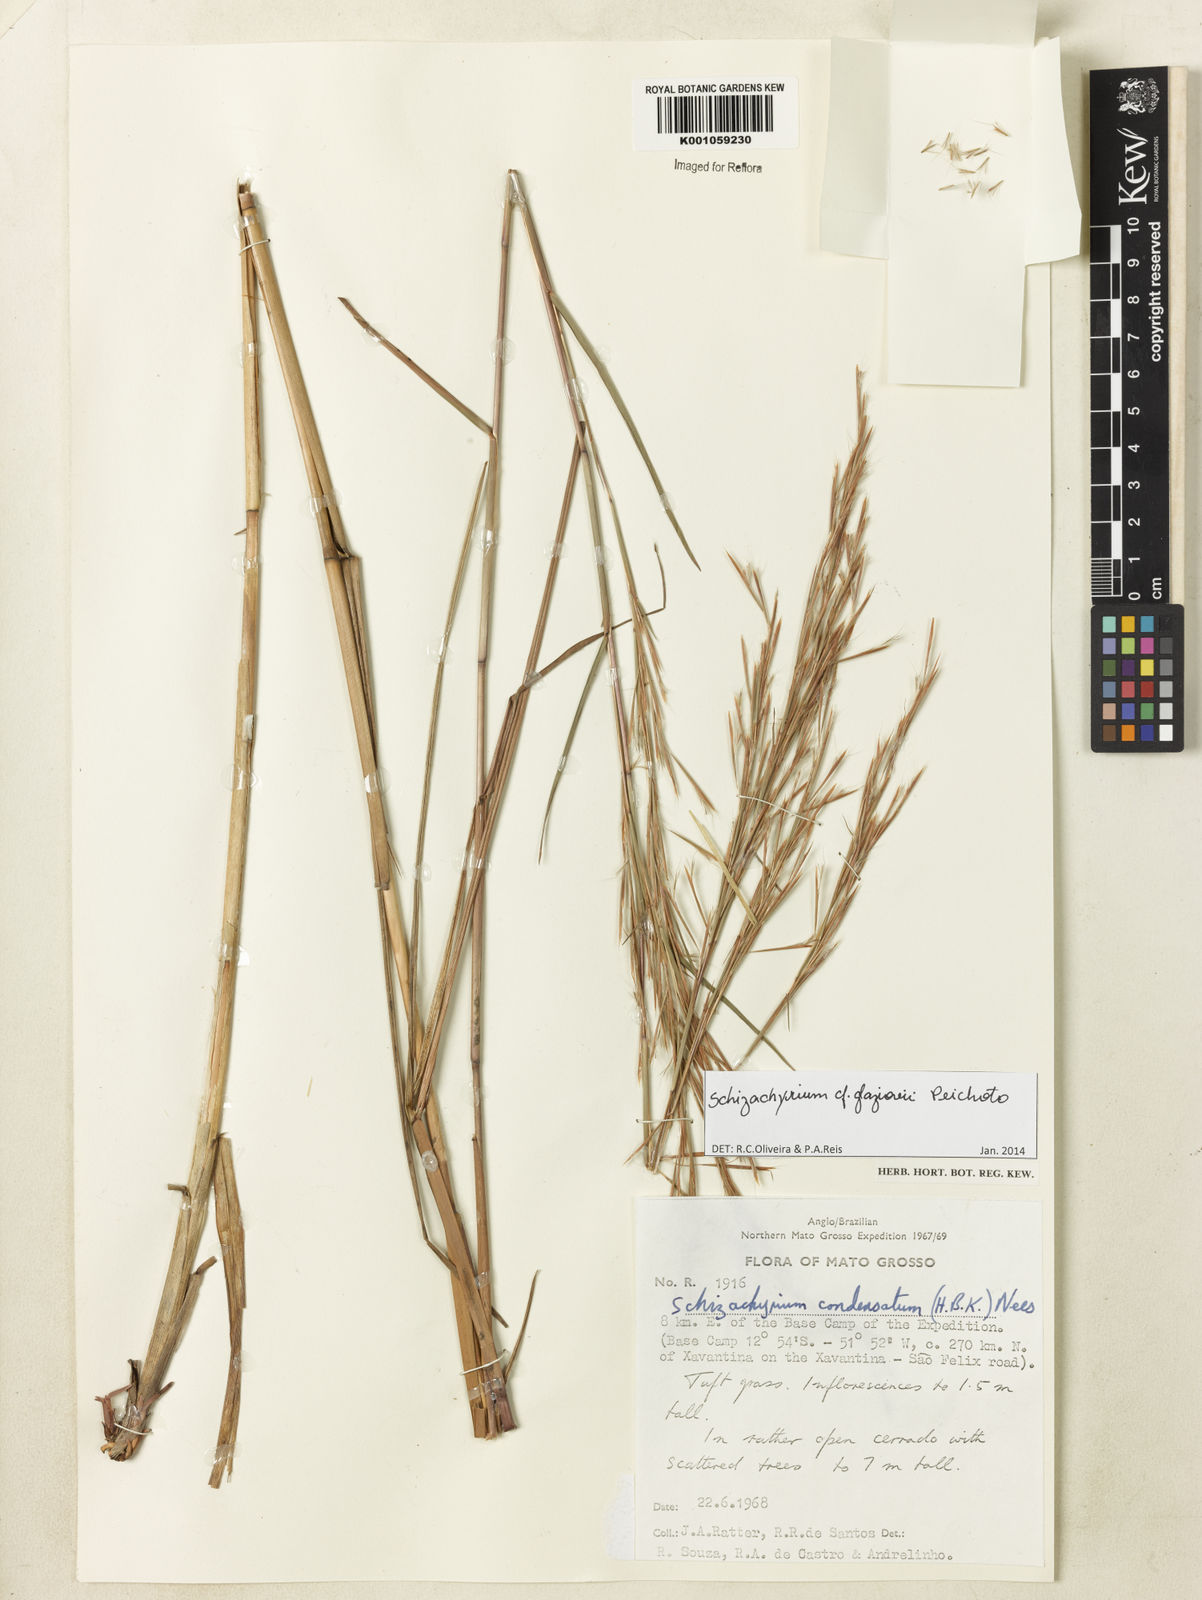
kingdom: Plantae
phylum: Tracheophyta
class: Liliopsida
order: Poales
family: Poaceae
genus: Schizachyrium
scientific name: Schizachyrium glaziovii
